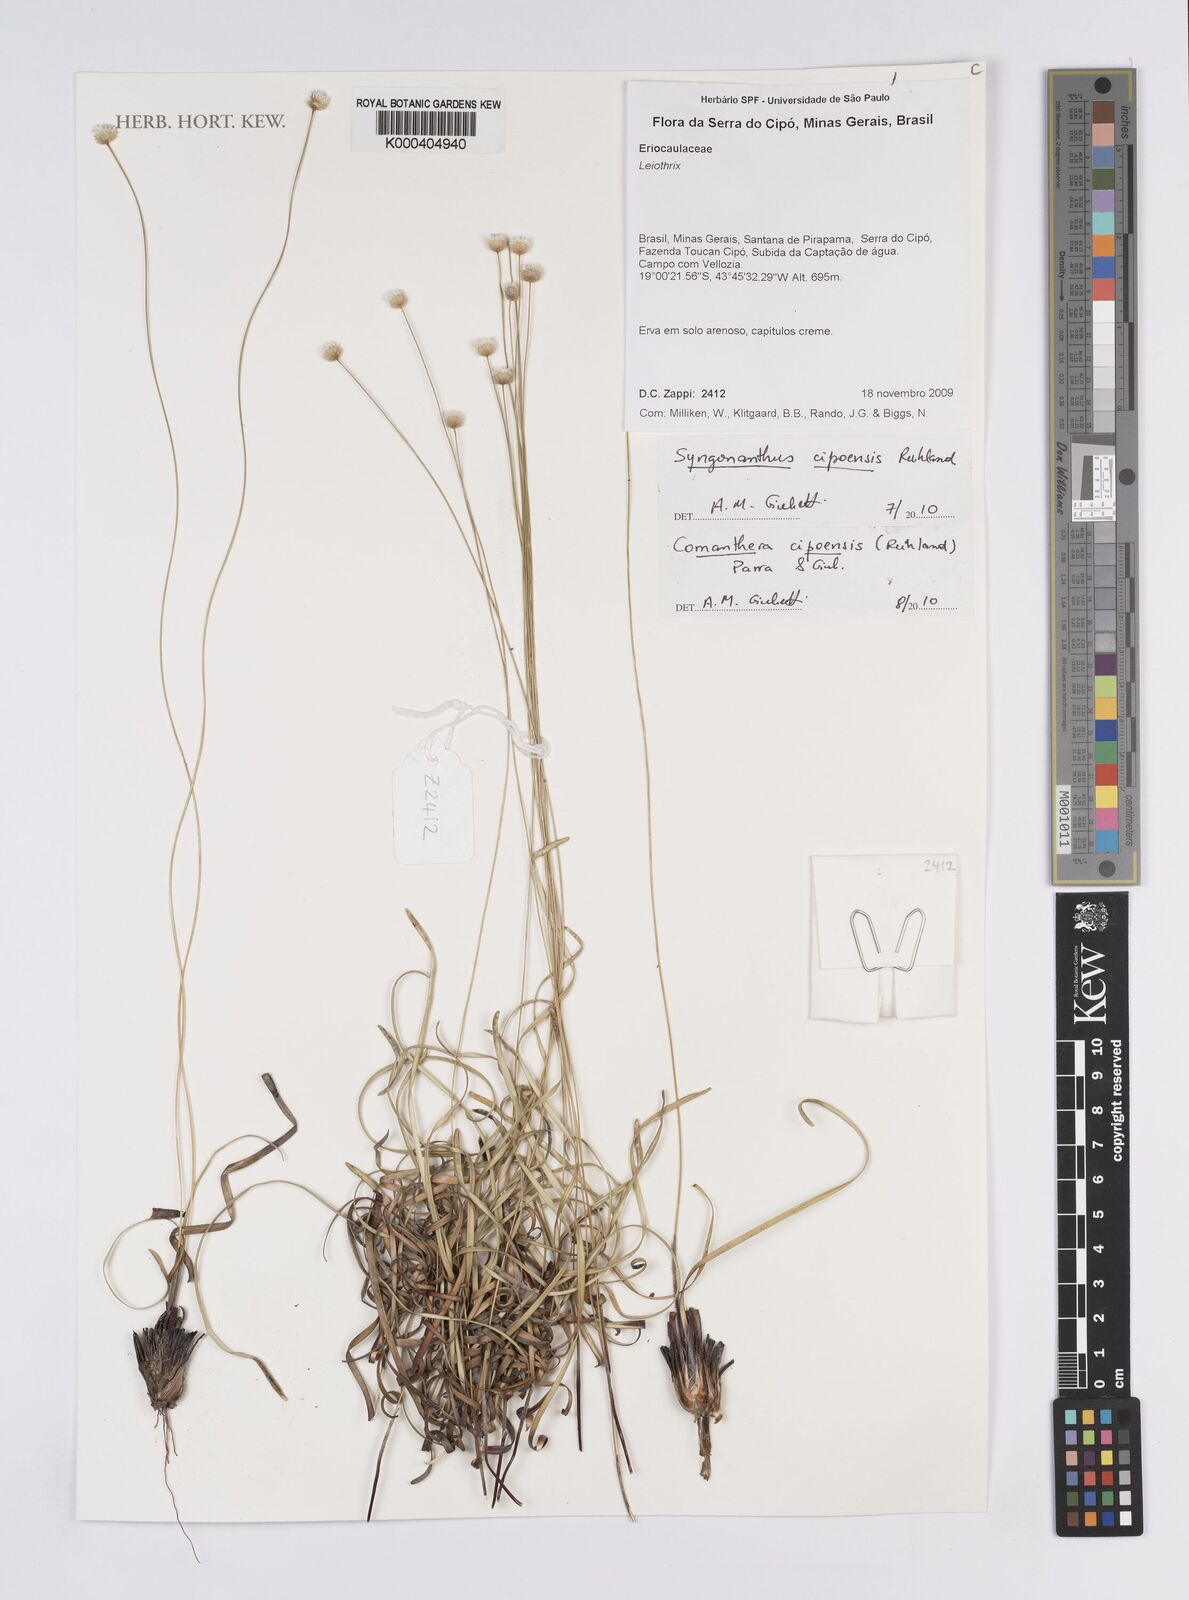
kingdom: Plantae
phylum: Tracheophyta
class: Liliopsida
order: Poales
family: Eriocaulaceae
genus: Comanthera
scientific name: Comanthera cipoensis
